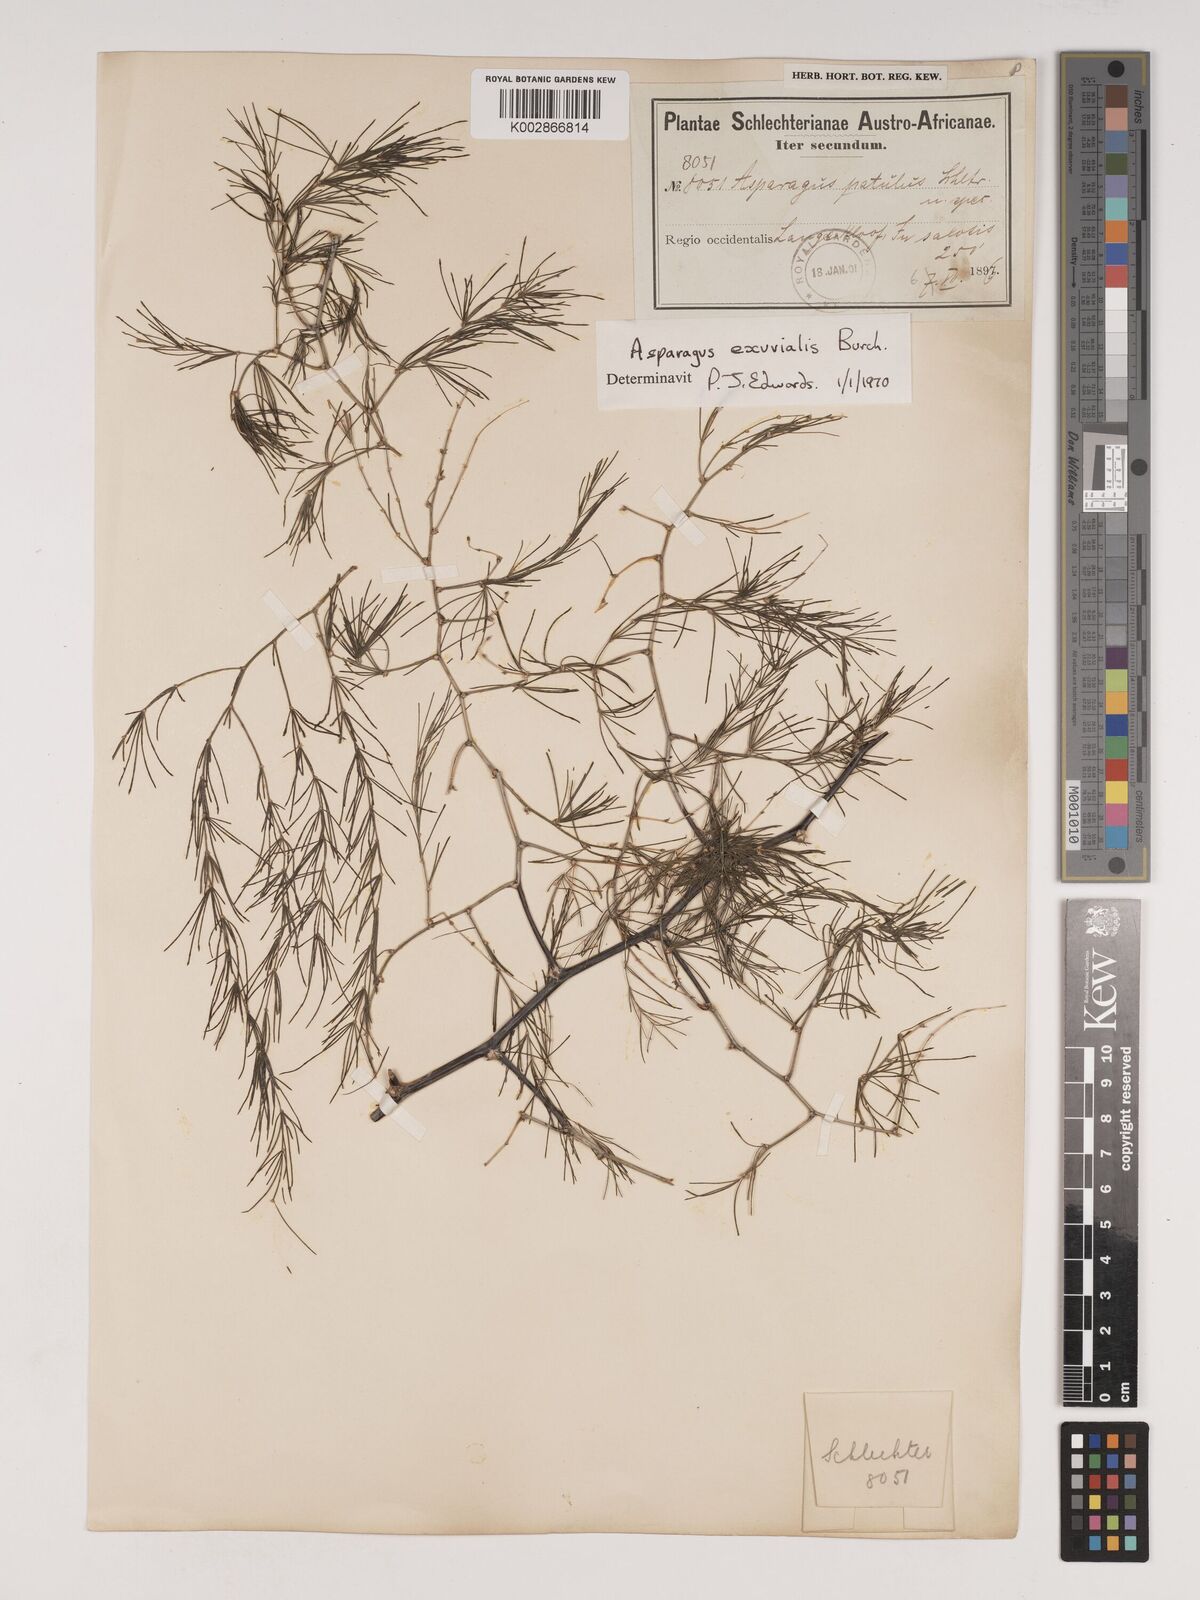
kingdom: Plantae
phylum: Tracheophyta
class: Liliopsida
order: Asparagales
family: Asparagaceae
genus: Asparagus
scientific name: Asparagus exuvialis
